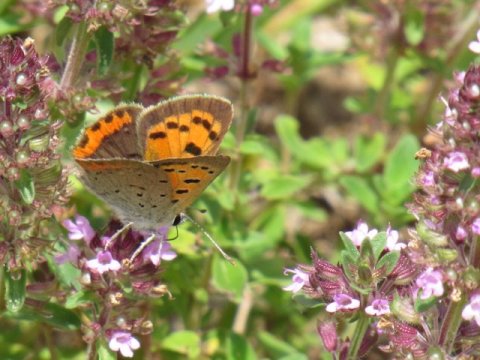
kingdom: Animalia
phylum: Arthropoda
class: Insecta
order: Lepidoptera
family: Lycaenidae
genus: Lycaena
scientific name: Lycaena phlaeas
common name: American Copper
